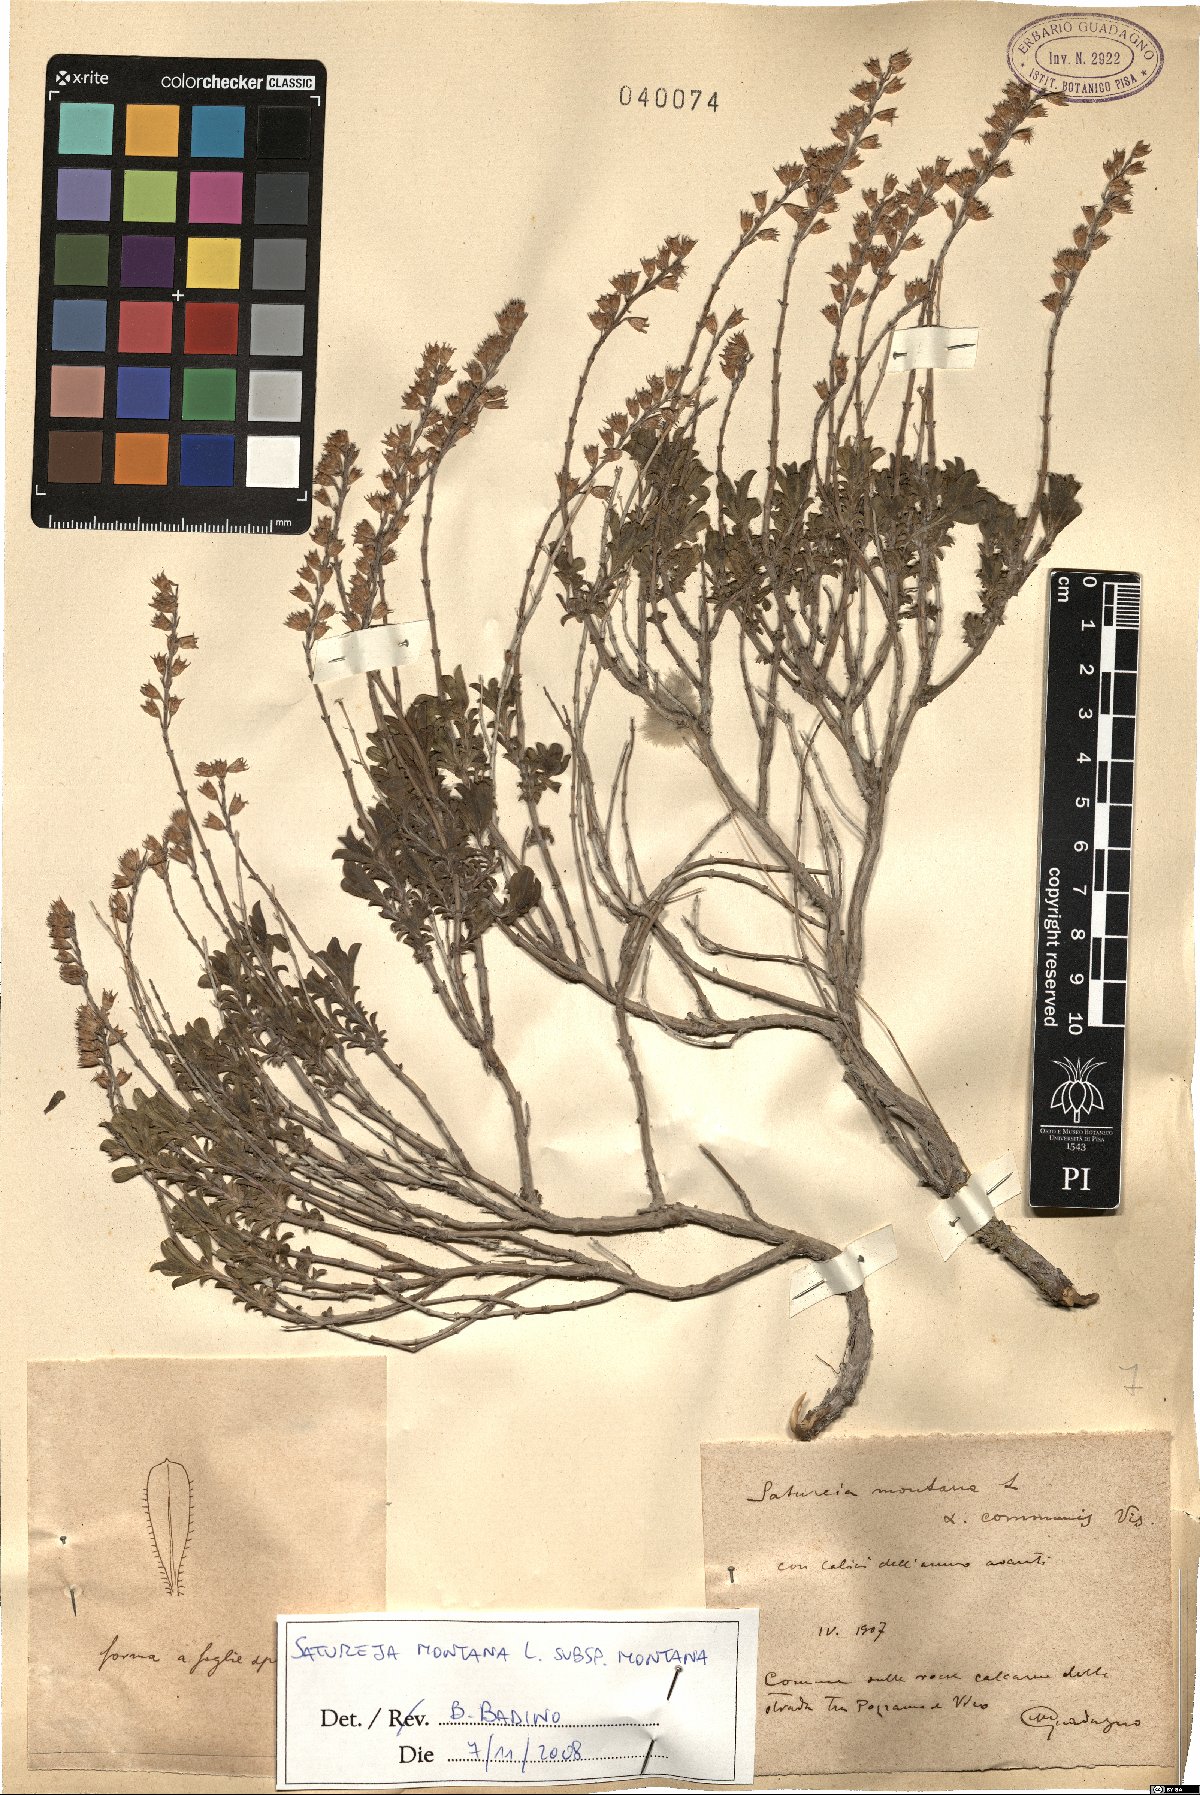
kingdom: Plantae
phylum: Tracheophyta
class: Magnoliopsida
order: Lamiales
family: Lamiaceae
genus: Satureja
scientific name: Satureja montana
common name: Winter savory
